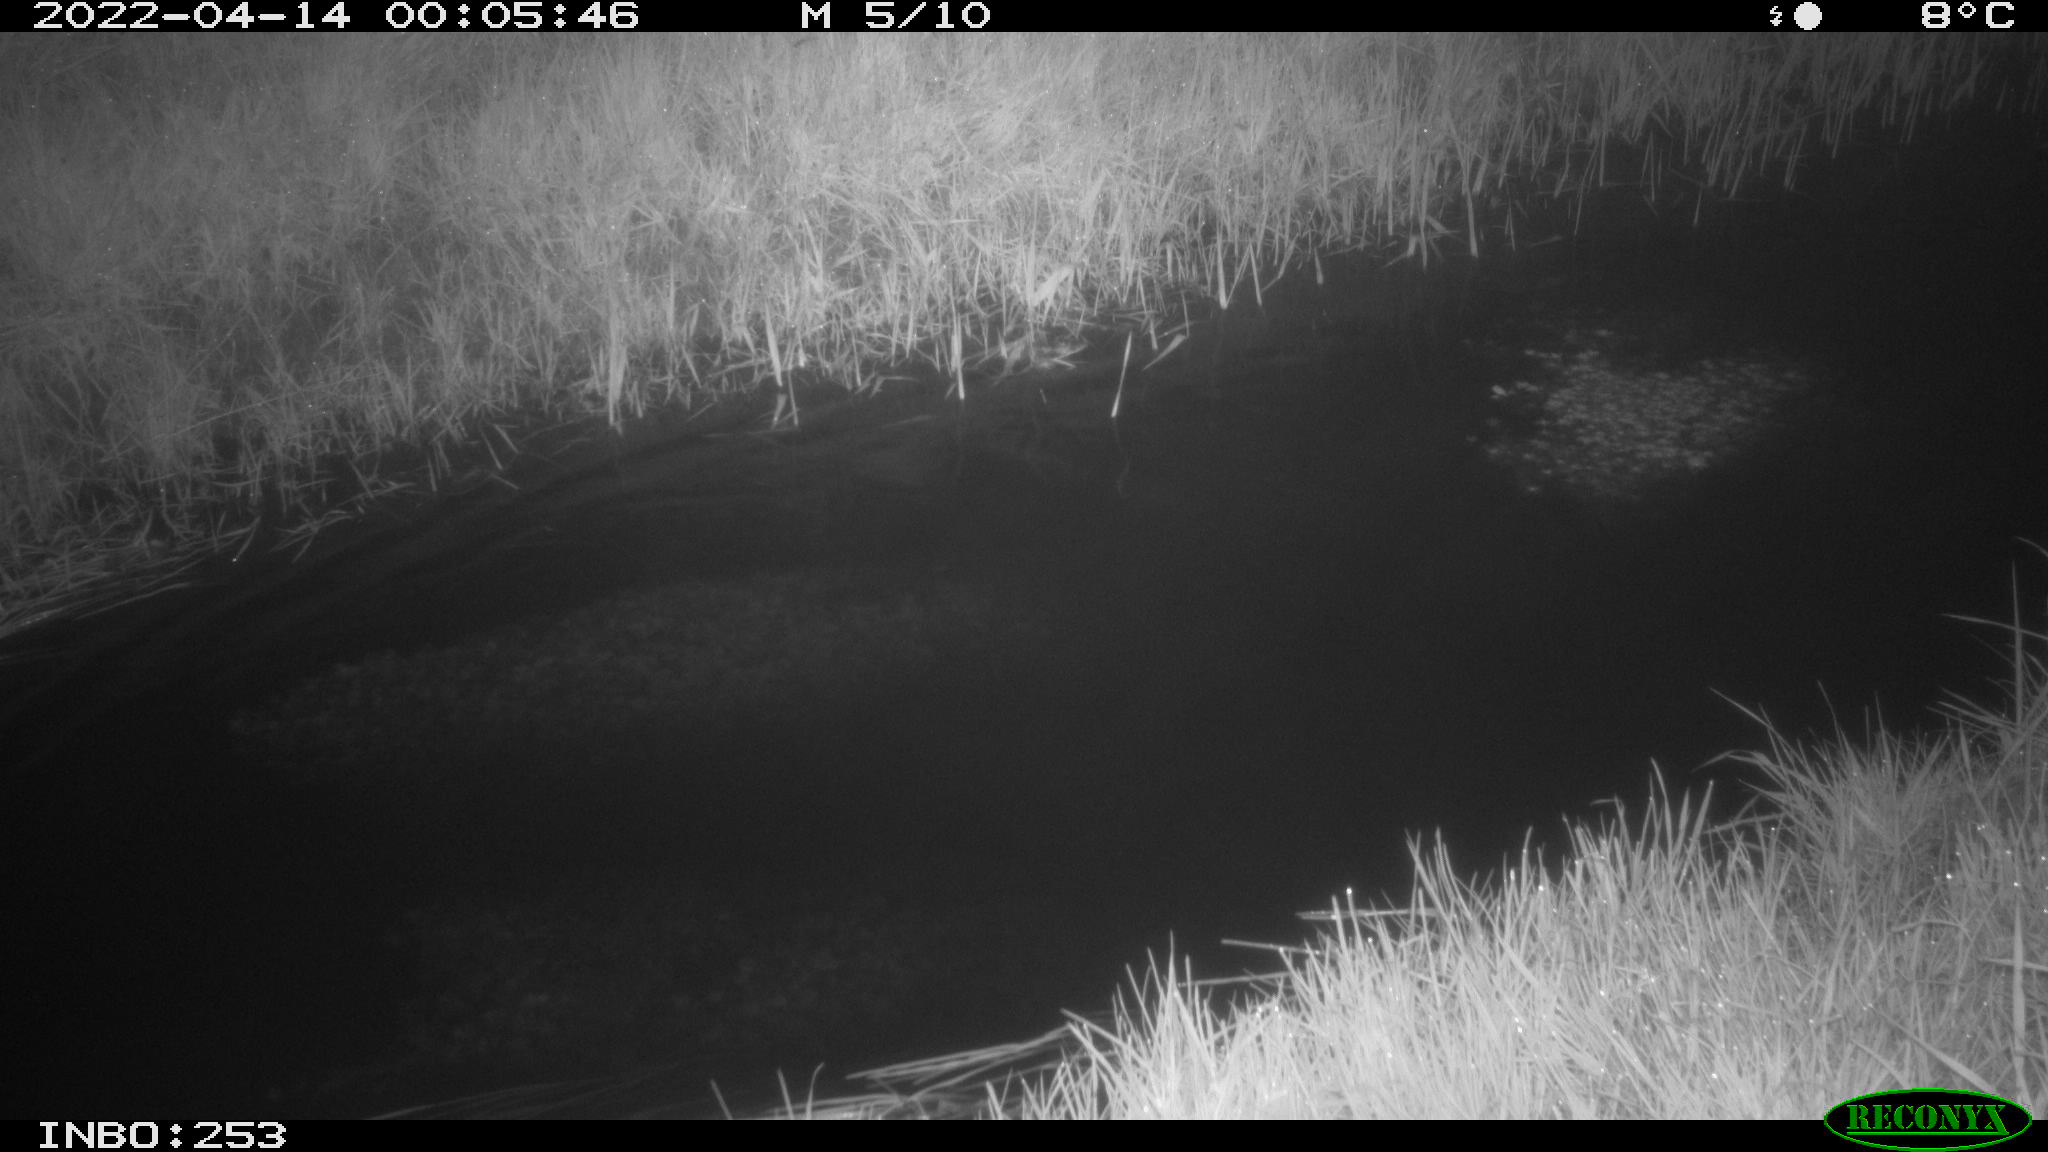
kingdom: Animalia
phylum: Chordata
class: Aves
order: Anseriformes
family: Anatidae
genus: Anas
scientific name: Anas platyrhynchos
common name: Mallard
